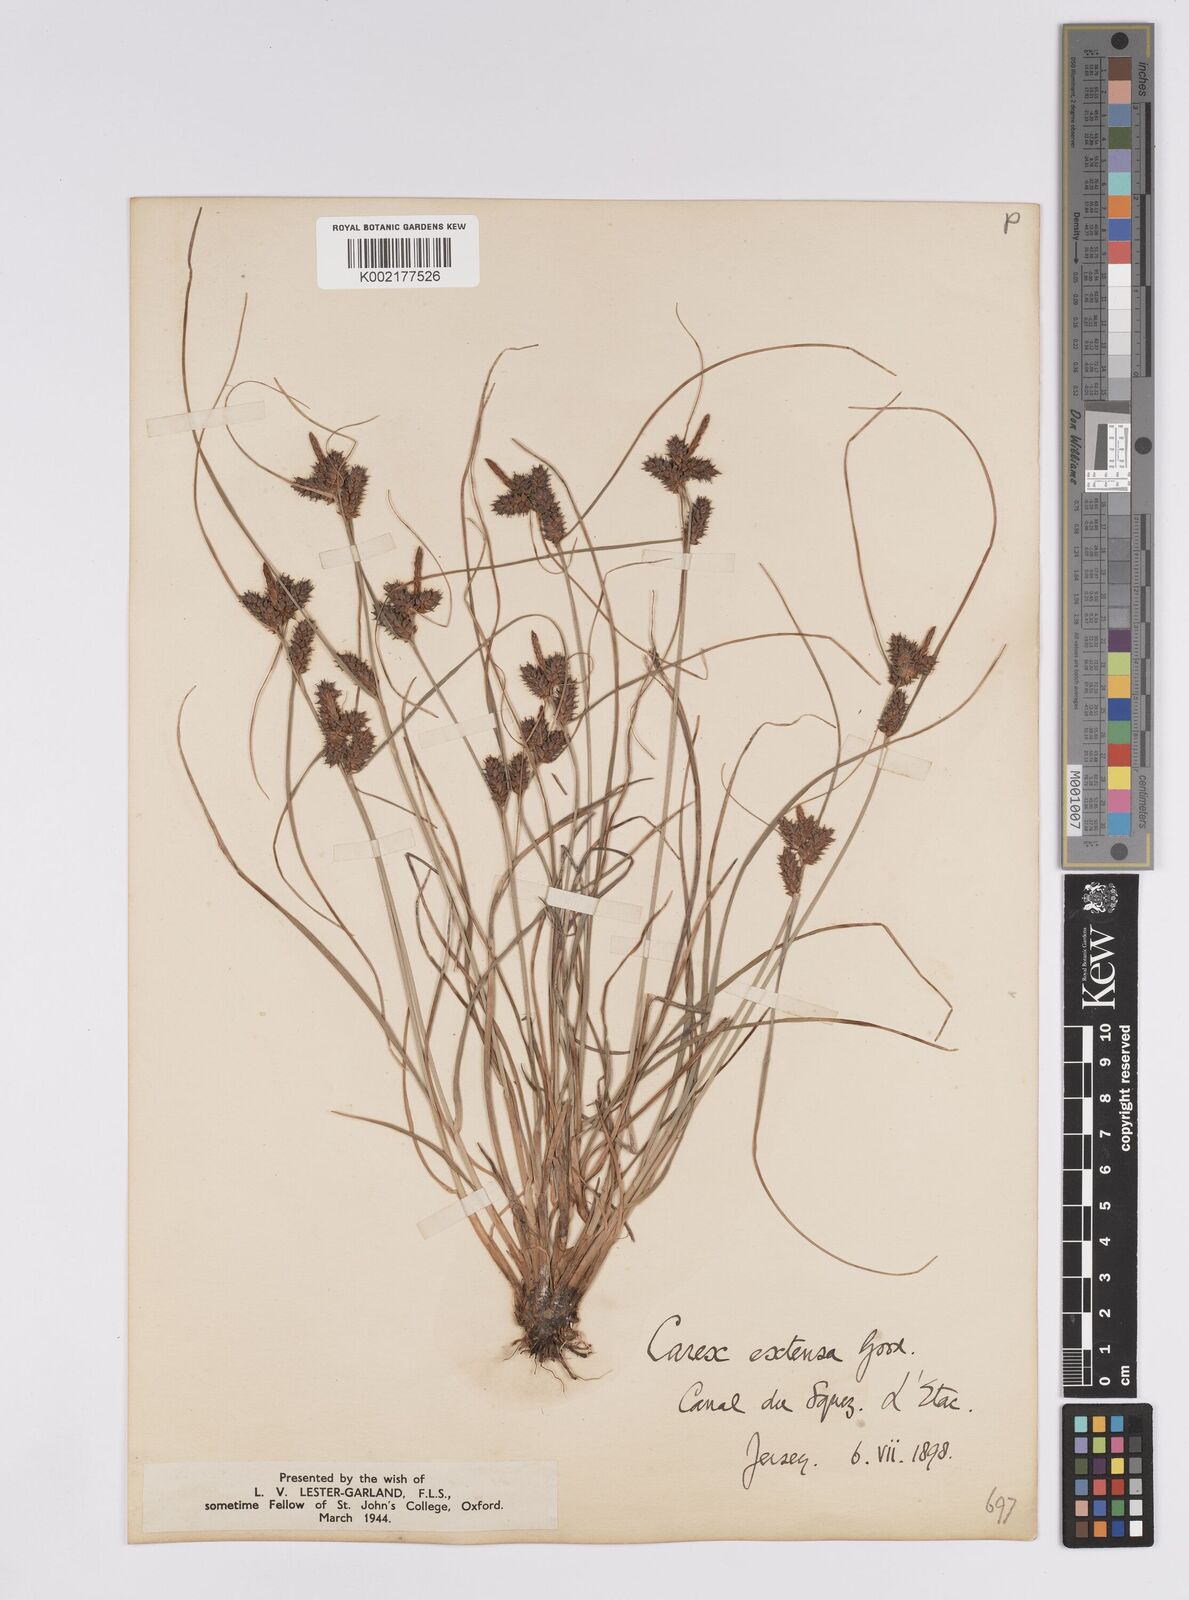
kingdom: Plantae
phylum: Tracheophyta
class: Liliopsida
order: Poales
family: Cyperaceae
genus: Carex
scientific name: Carex extensa
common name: Long-bracted sedge
